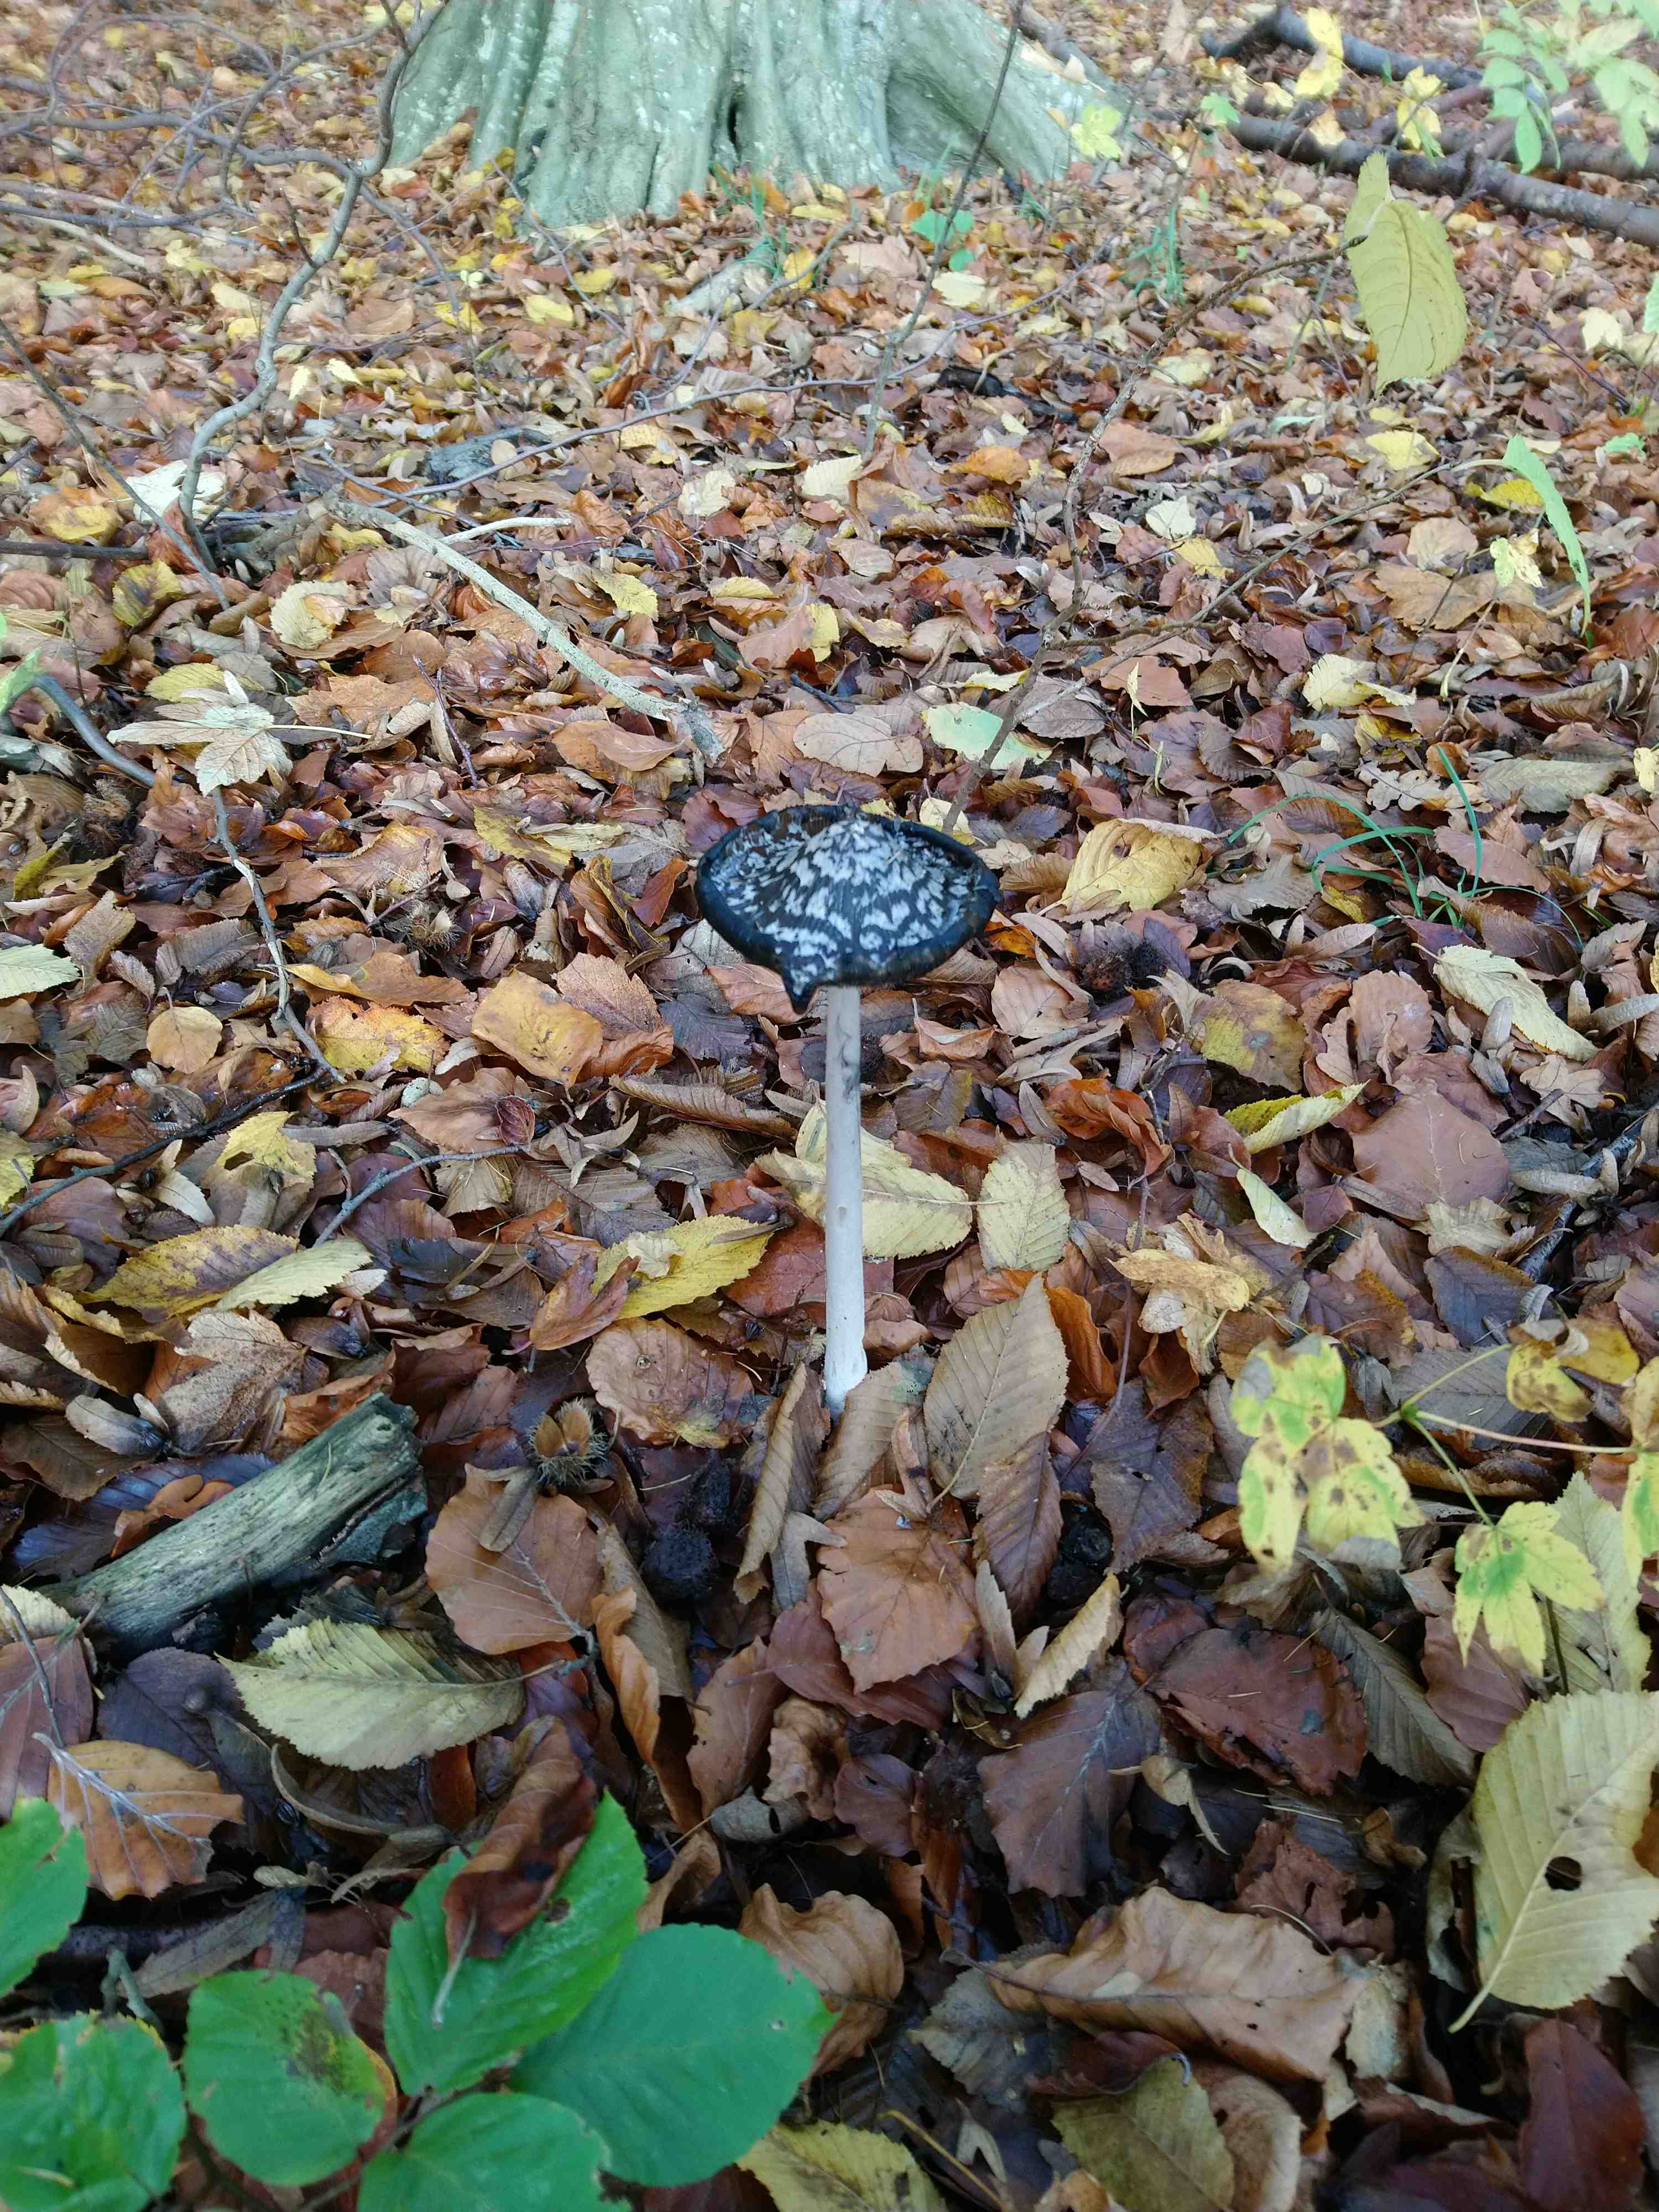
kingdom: Fungi
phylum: Basidiomycota
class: Agaricomycetes
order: Agaricales
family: Psathyrellaceae
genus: Coprinopsis
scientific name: Coprinopsis picacea
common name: skade-blækhat
